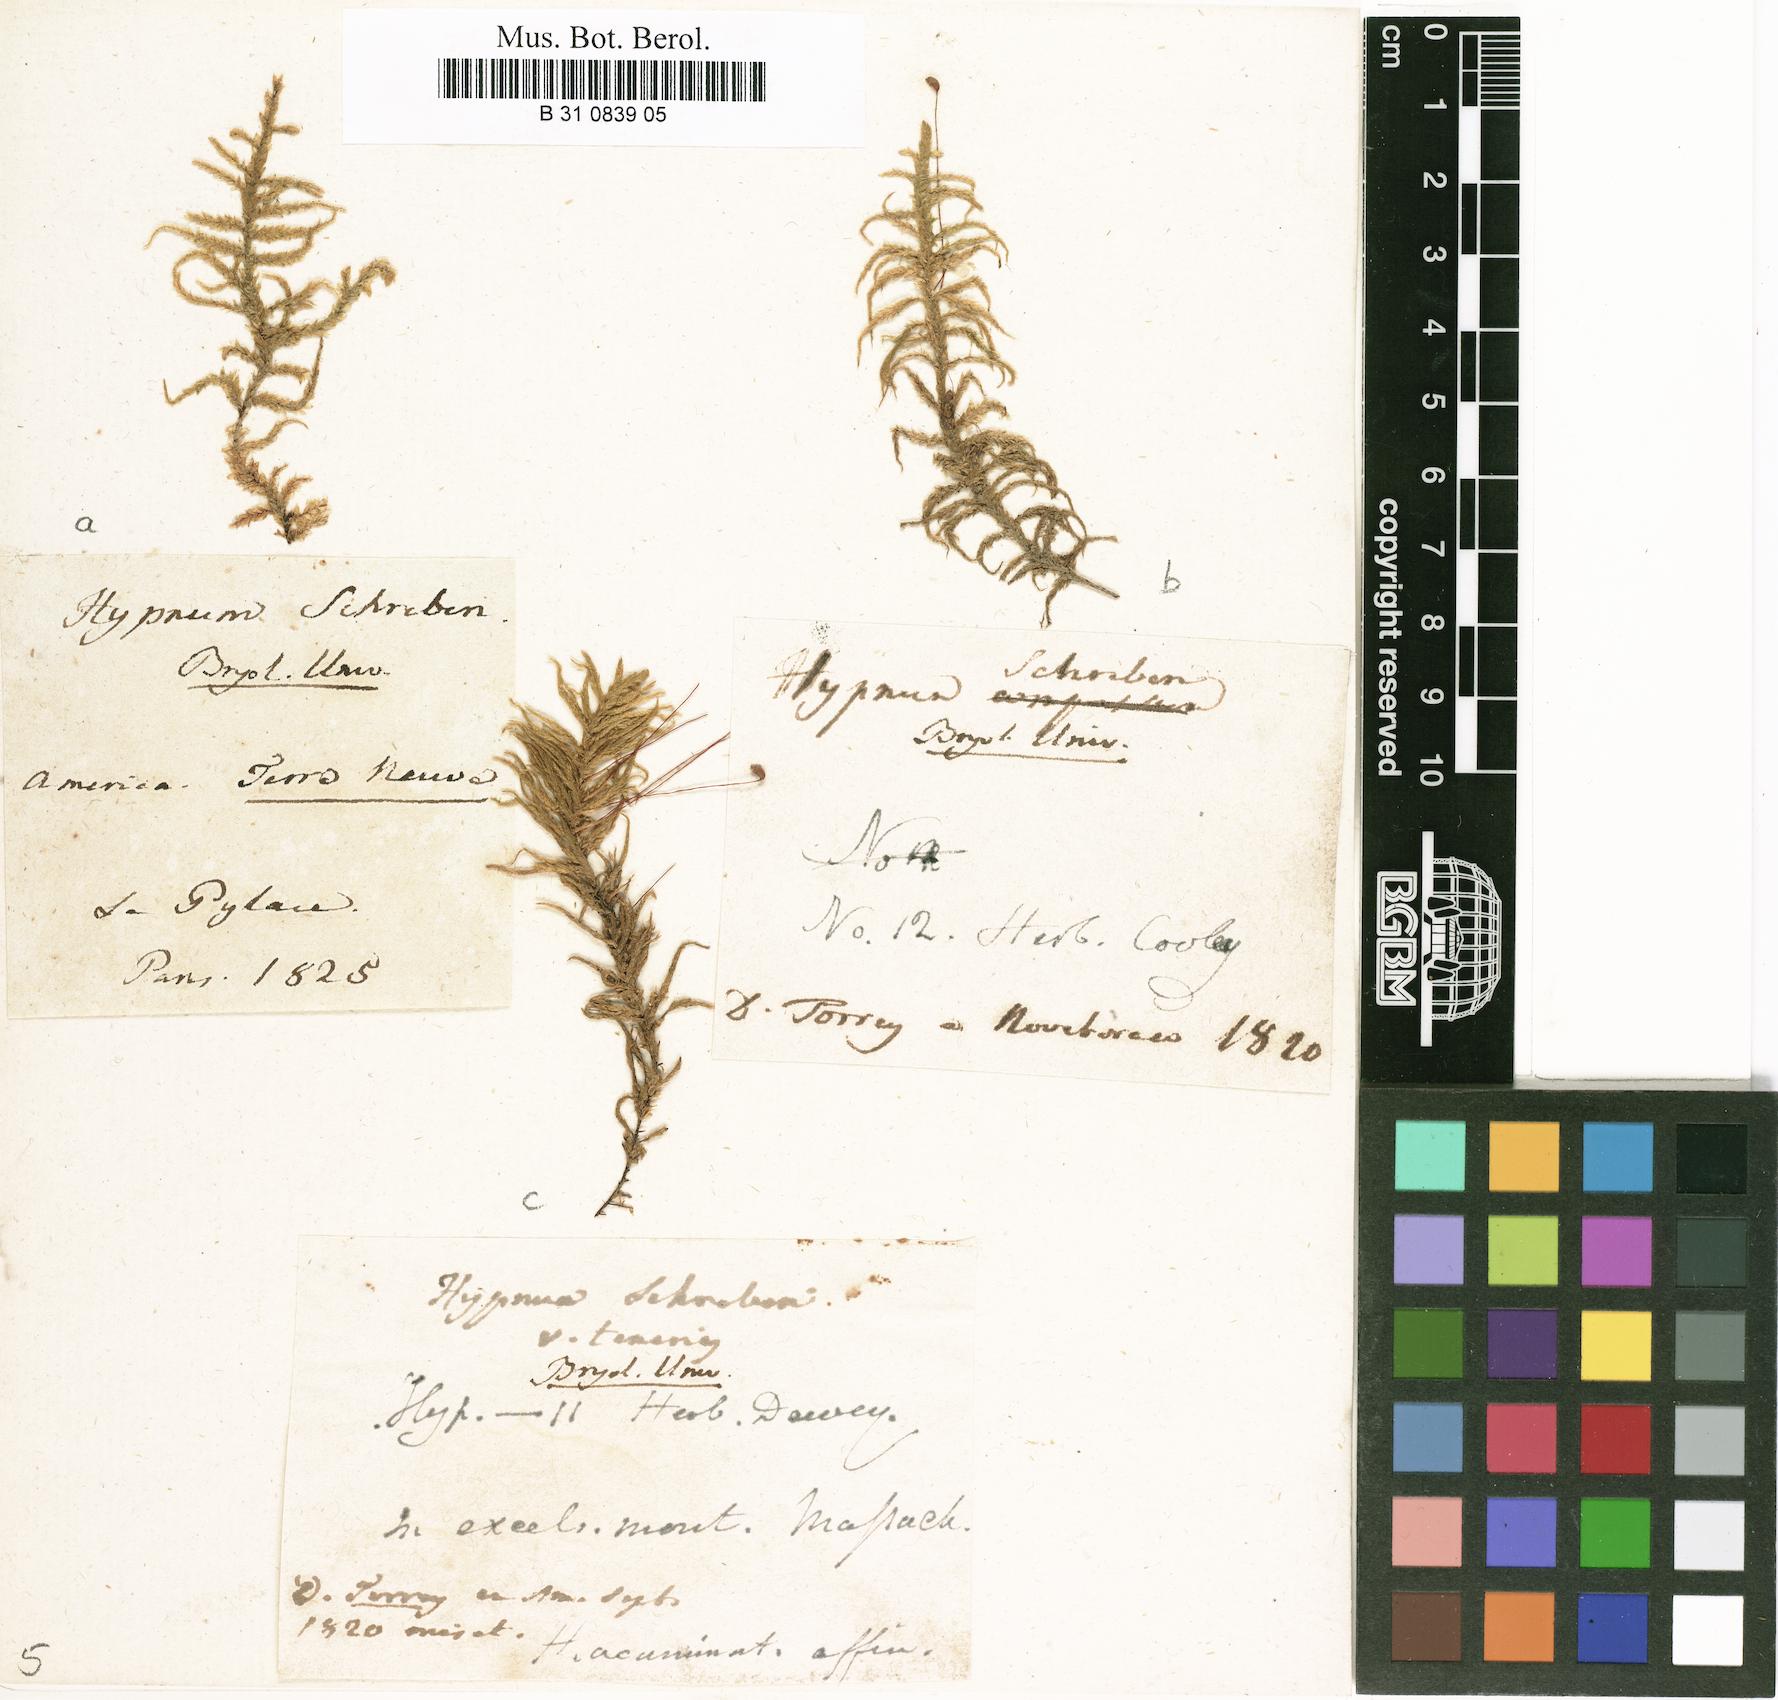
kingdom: Plantae
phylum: Bryophyta
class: Bryopsida
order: Hypnales
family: Hylocomiaceae
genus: Pleurozium
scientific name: Pleurozium schreberi
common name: Red-stemmed feather moss
